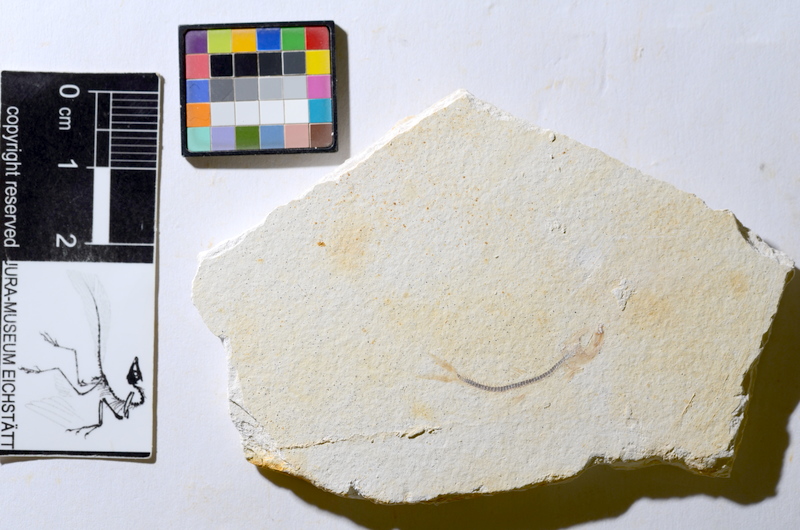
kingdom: Animalia
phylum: Chordata
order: Salmoniformes
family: Orthogonikleithridae
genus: Orthogonikleithrus
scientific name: Orthogonikleithrus hoelli
